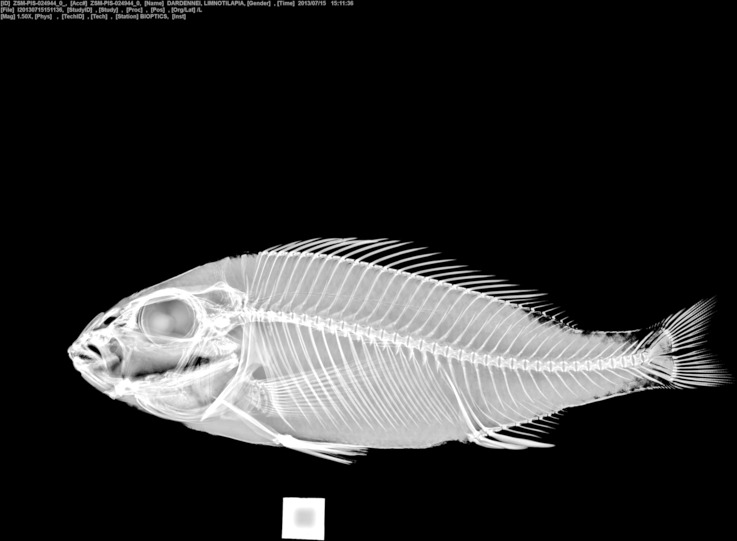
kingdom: Animalia
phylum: Chordata
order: Perciformes
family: Cichlidae
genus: Limnotilapia
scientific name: Limnotilapia dardennii
